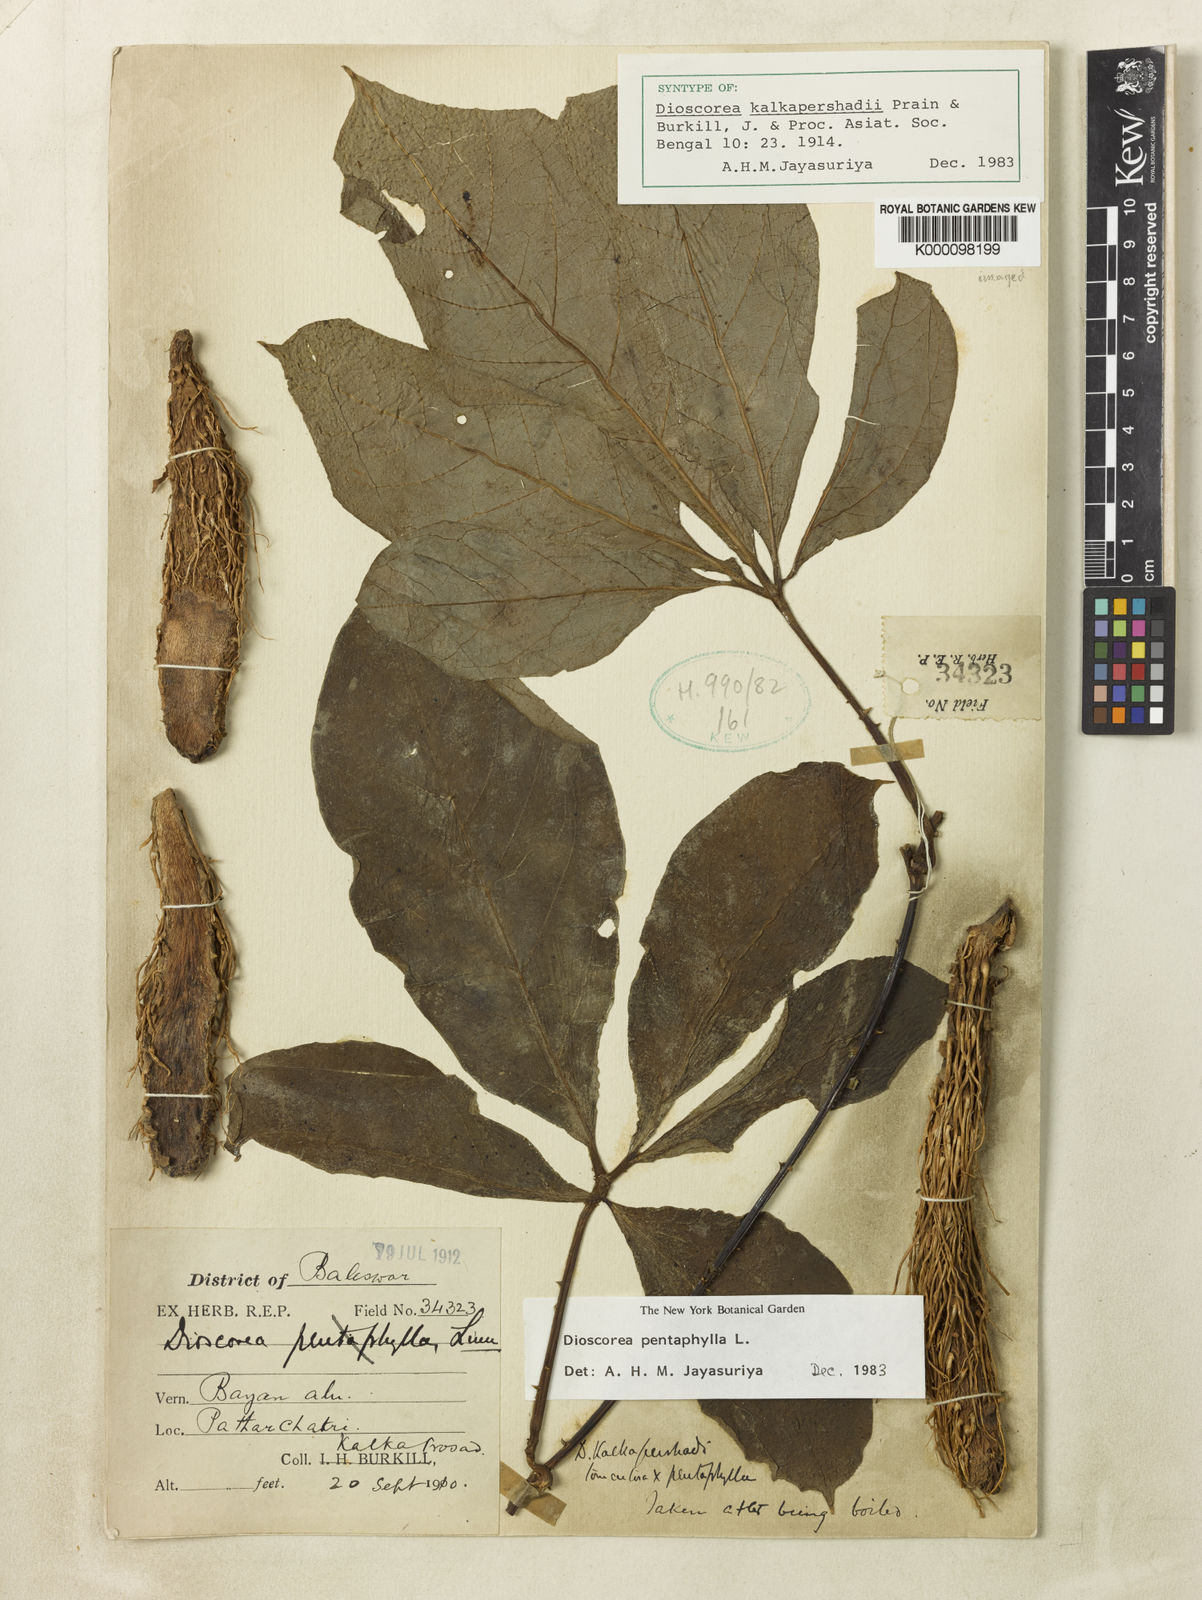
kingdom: Plantae
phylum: Tracheophyta
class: Liliopsida
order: Dioscoreales
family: Dioscoreaceae
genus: Dioscorea
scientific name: Dioscorea kalkapershadii
